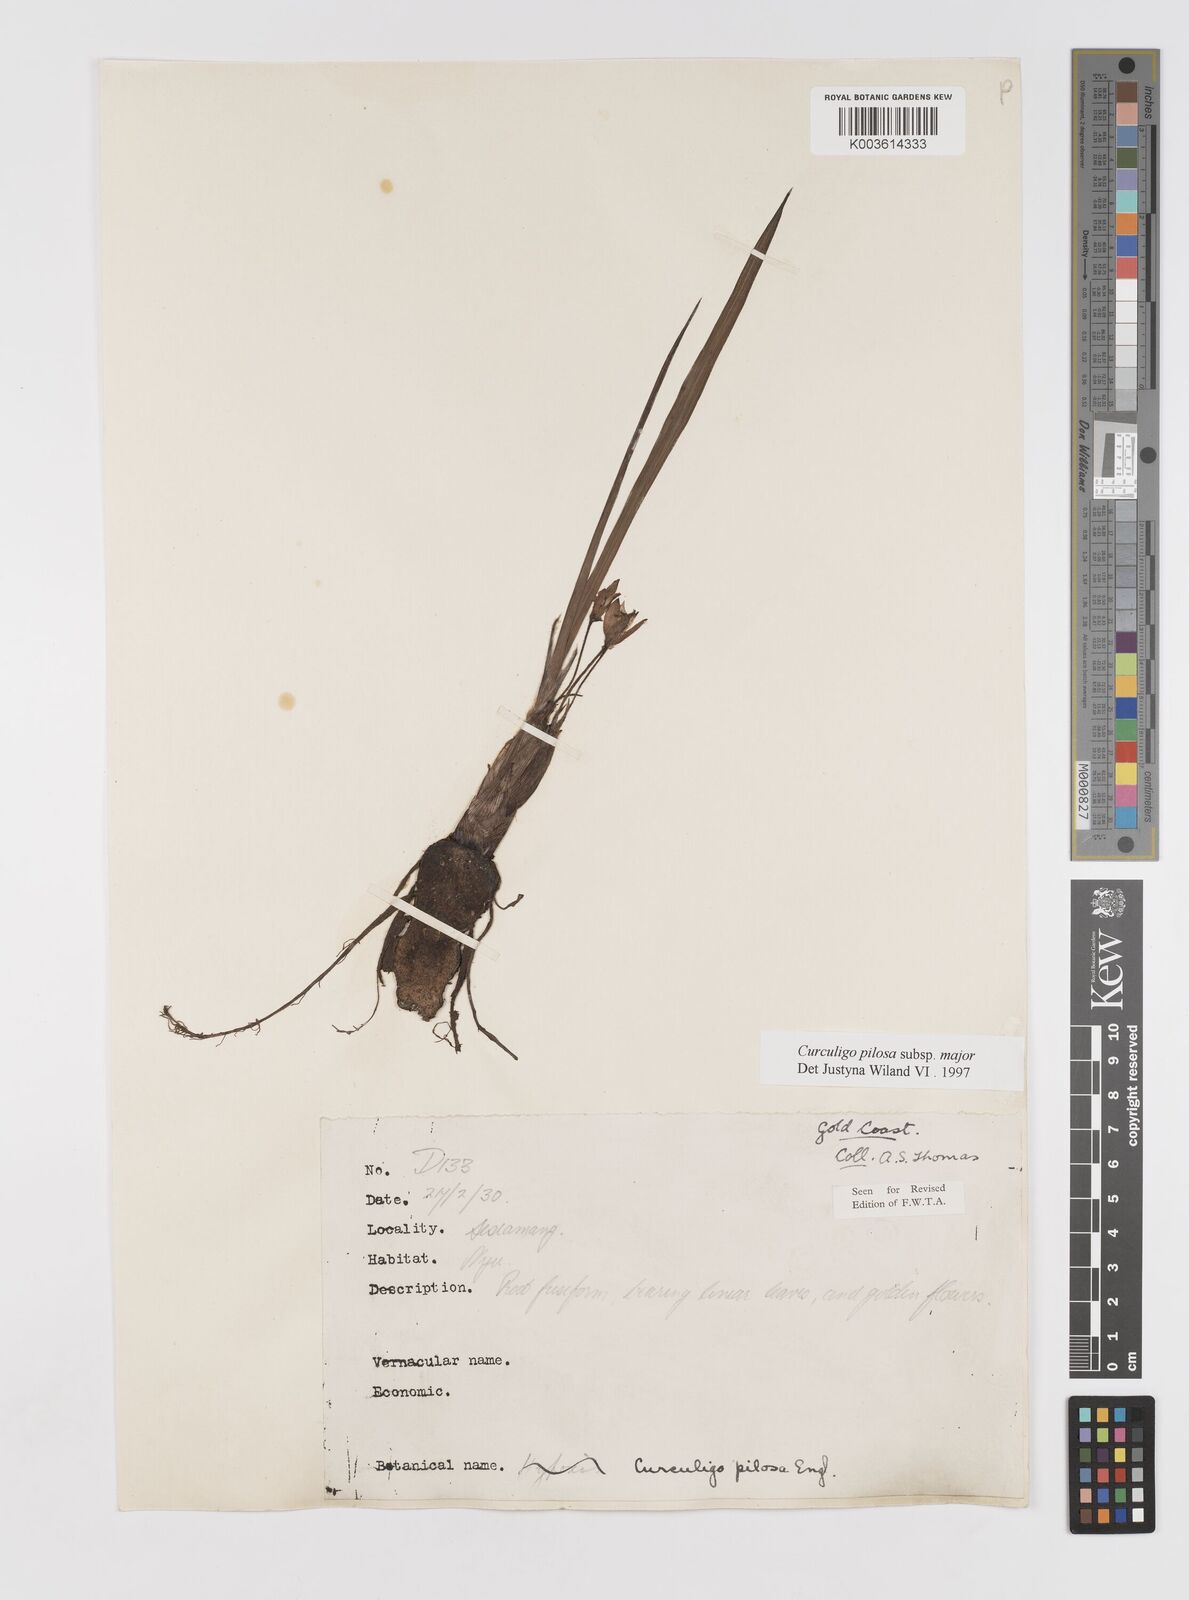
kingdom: Plantae
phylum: Tracheophyta
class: Liliopsida
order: Asparagales
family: Hypoxidaceae
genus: Curculigo
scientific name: Curculigo pilosa
